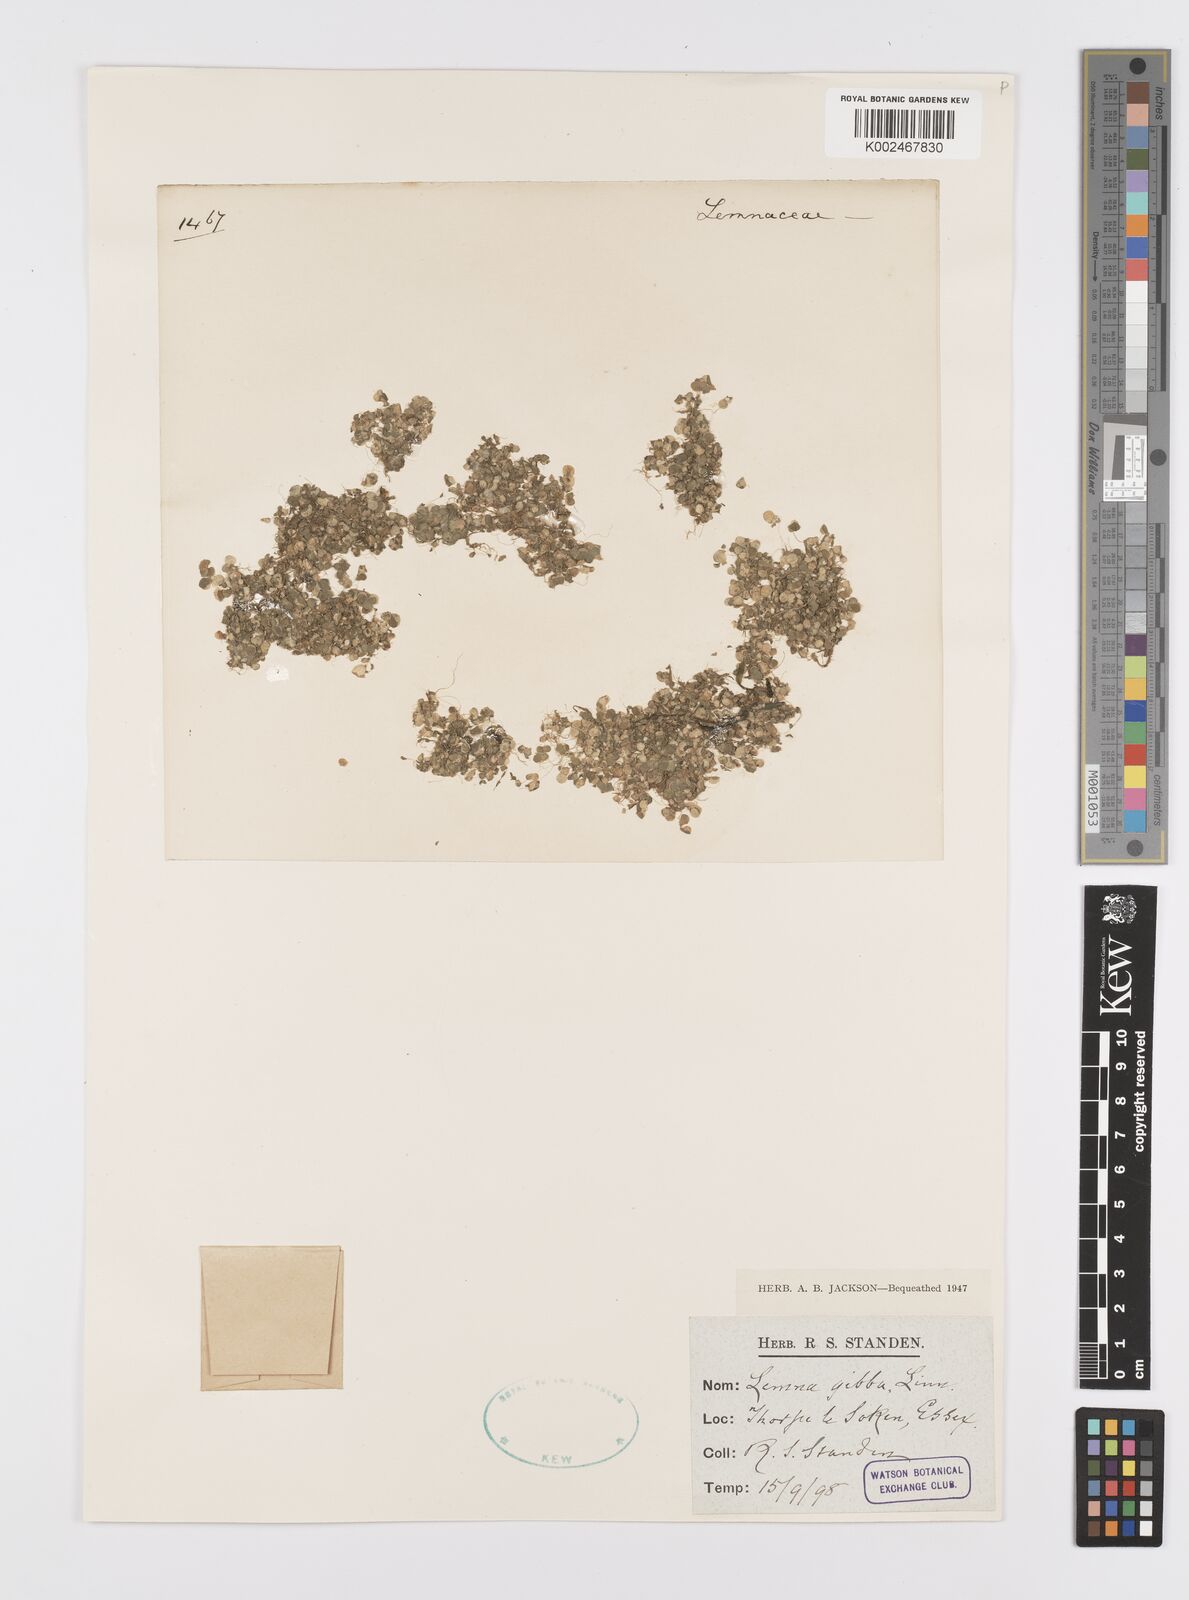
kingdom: Plantae
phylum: Tracheophyta
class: Liliopsida
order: Alismatales
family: Araceae
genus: Lemna
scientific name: Lemna gibba
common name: Fat duckweed
